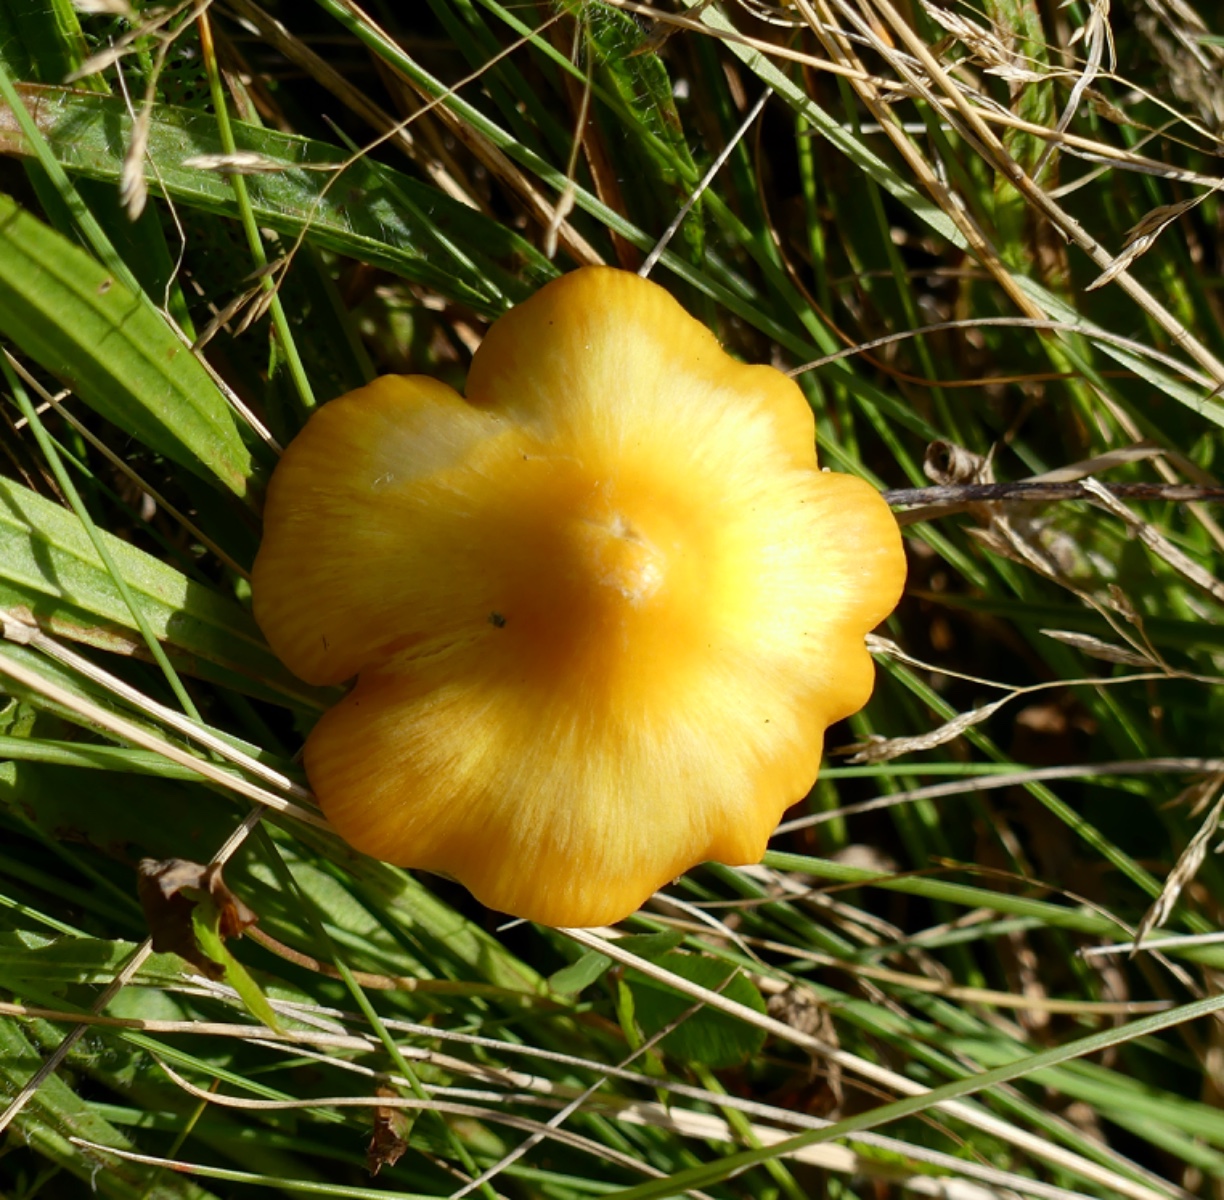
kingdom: Fungi
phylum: Basidiomycota
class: Agaricomycetes
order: Agaricales
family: Hygrophoraceae
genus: Hygrocybe
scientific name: Hygrocybe acutoconica
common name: spidspuklet vokshat
